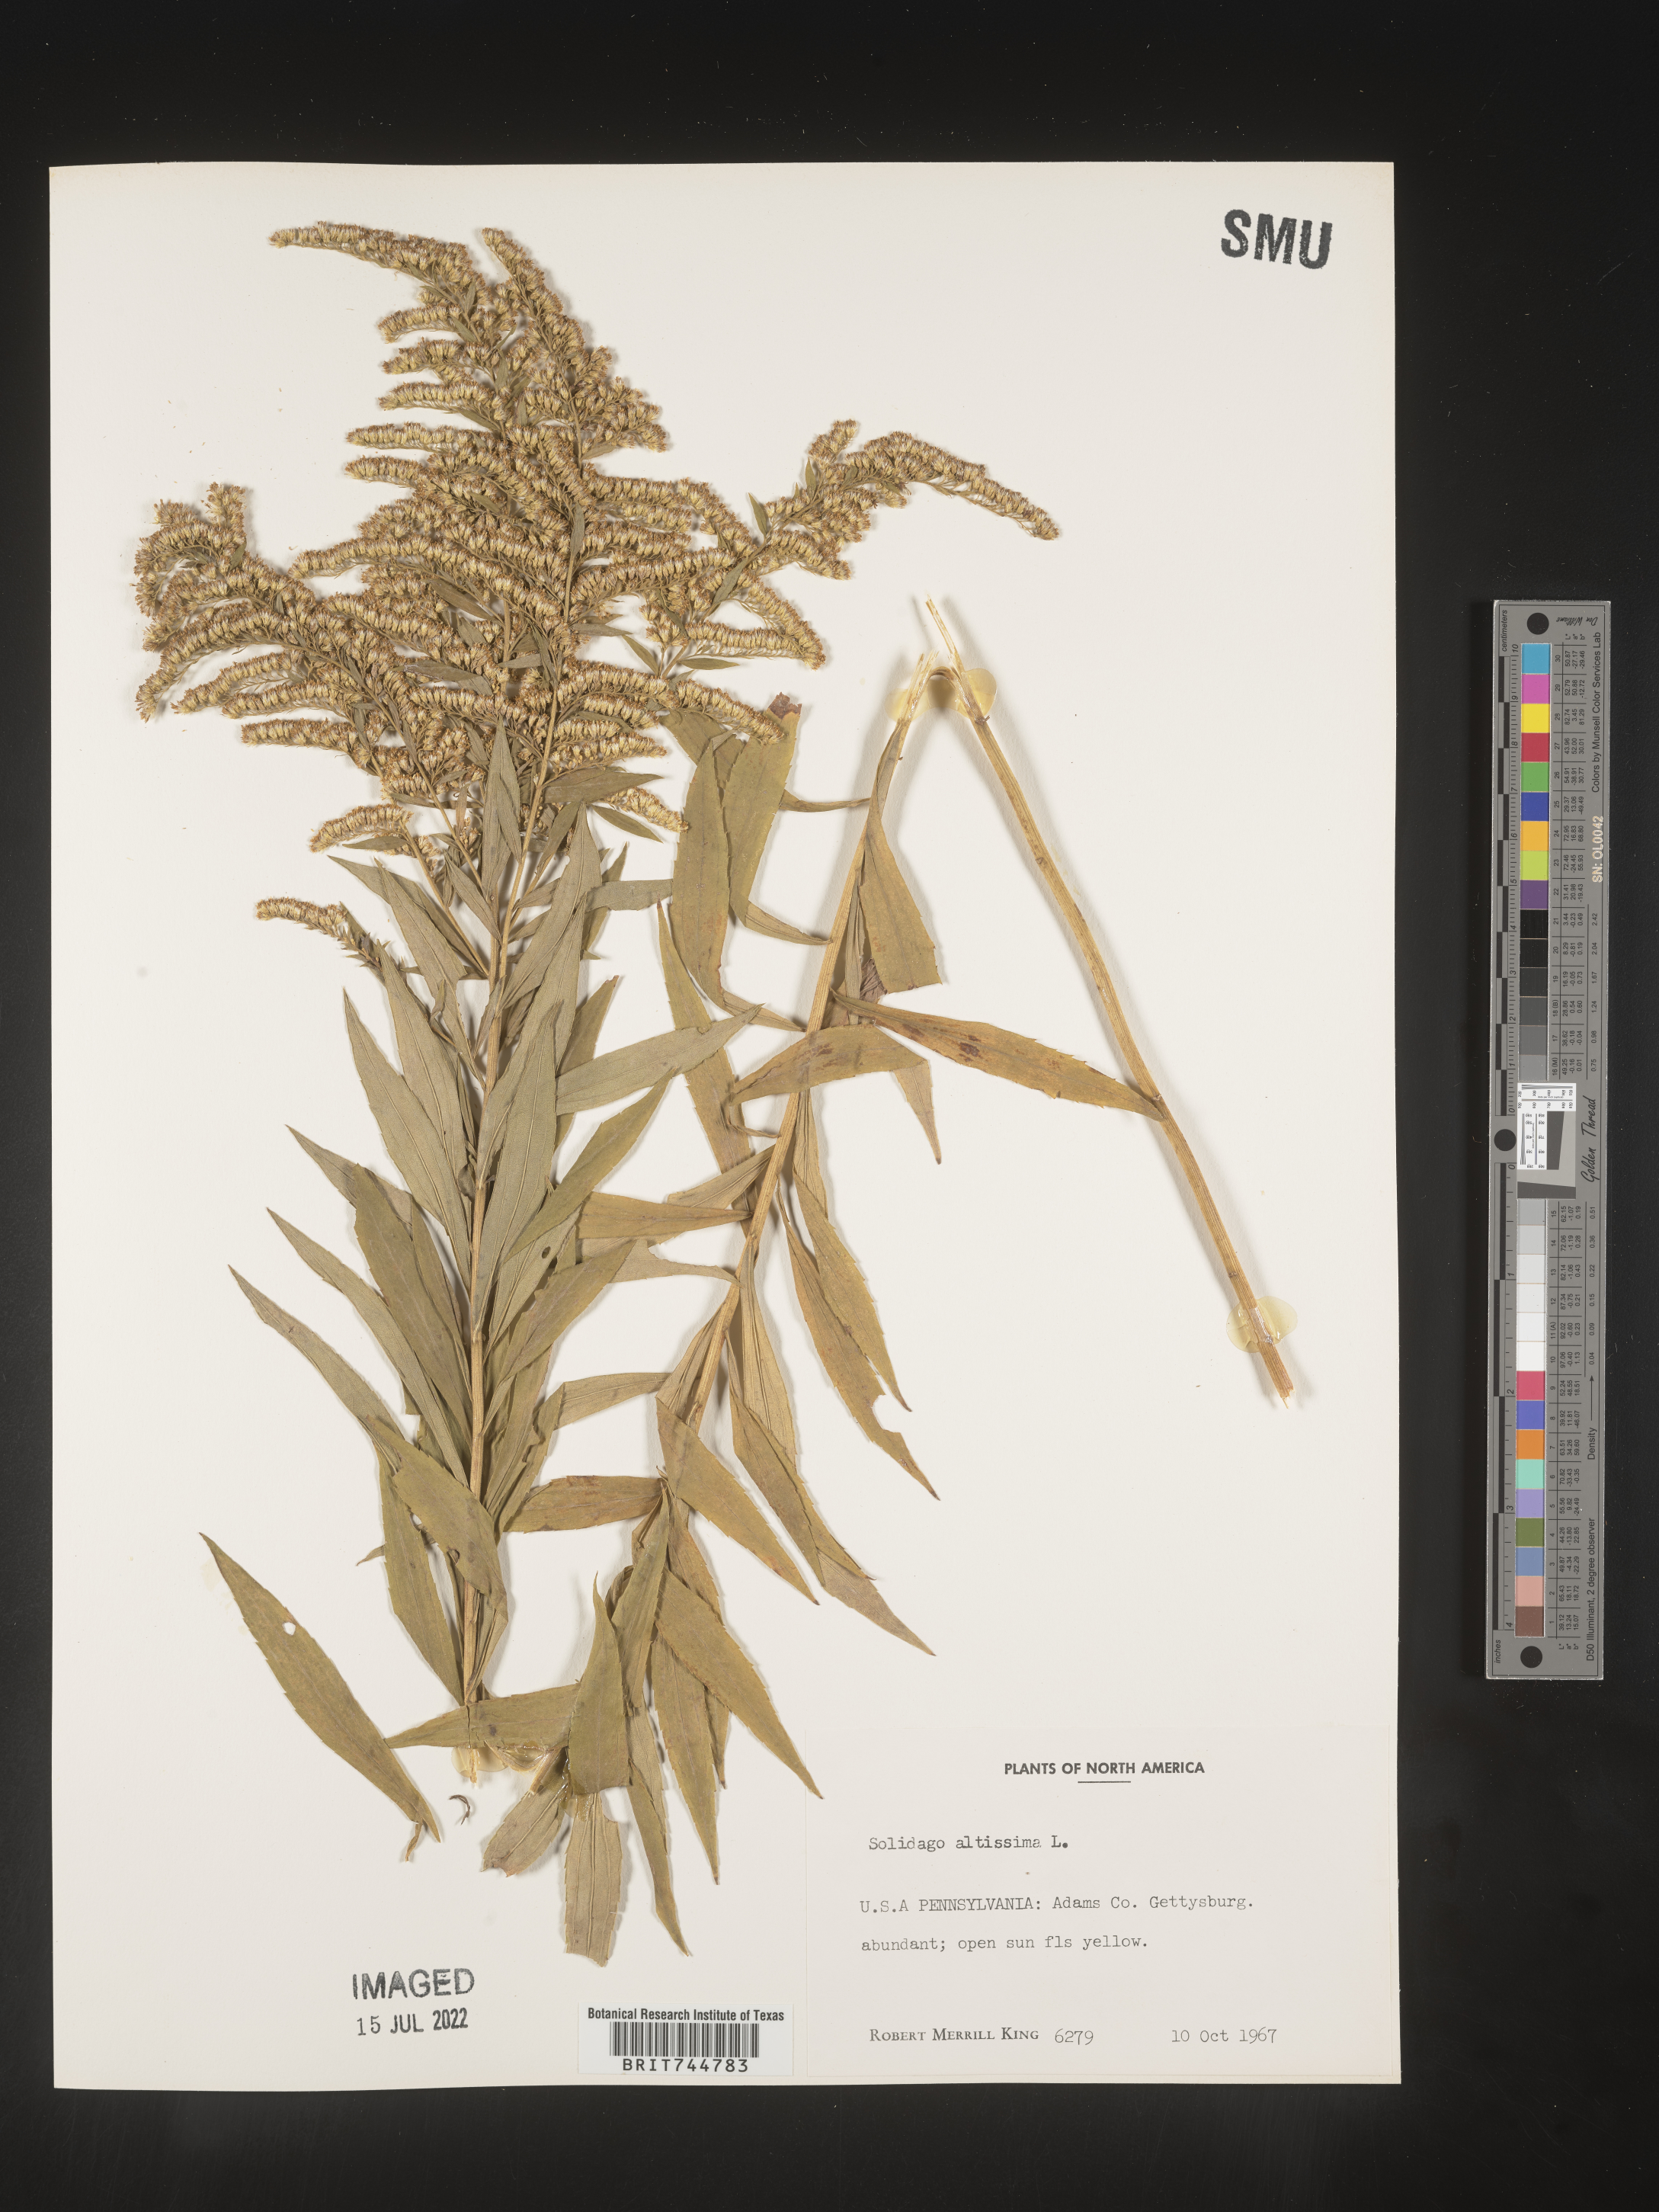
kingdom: Plantae
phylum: Tracheophyta
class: Magnoliopsida
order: Asterales
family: Asteraceae
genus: Solidago
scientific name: Solidago canadensis
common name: Canada goldenrod
